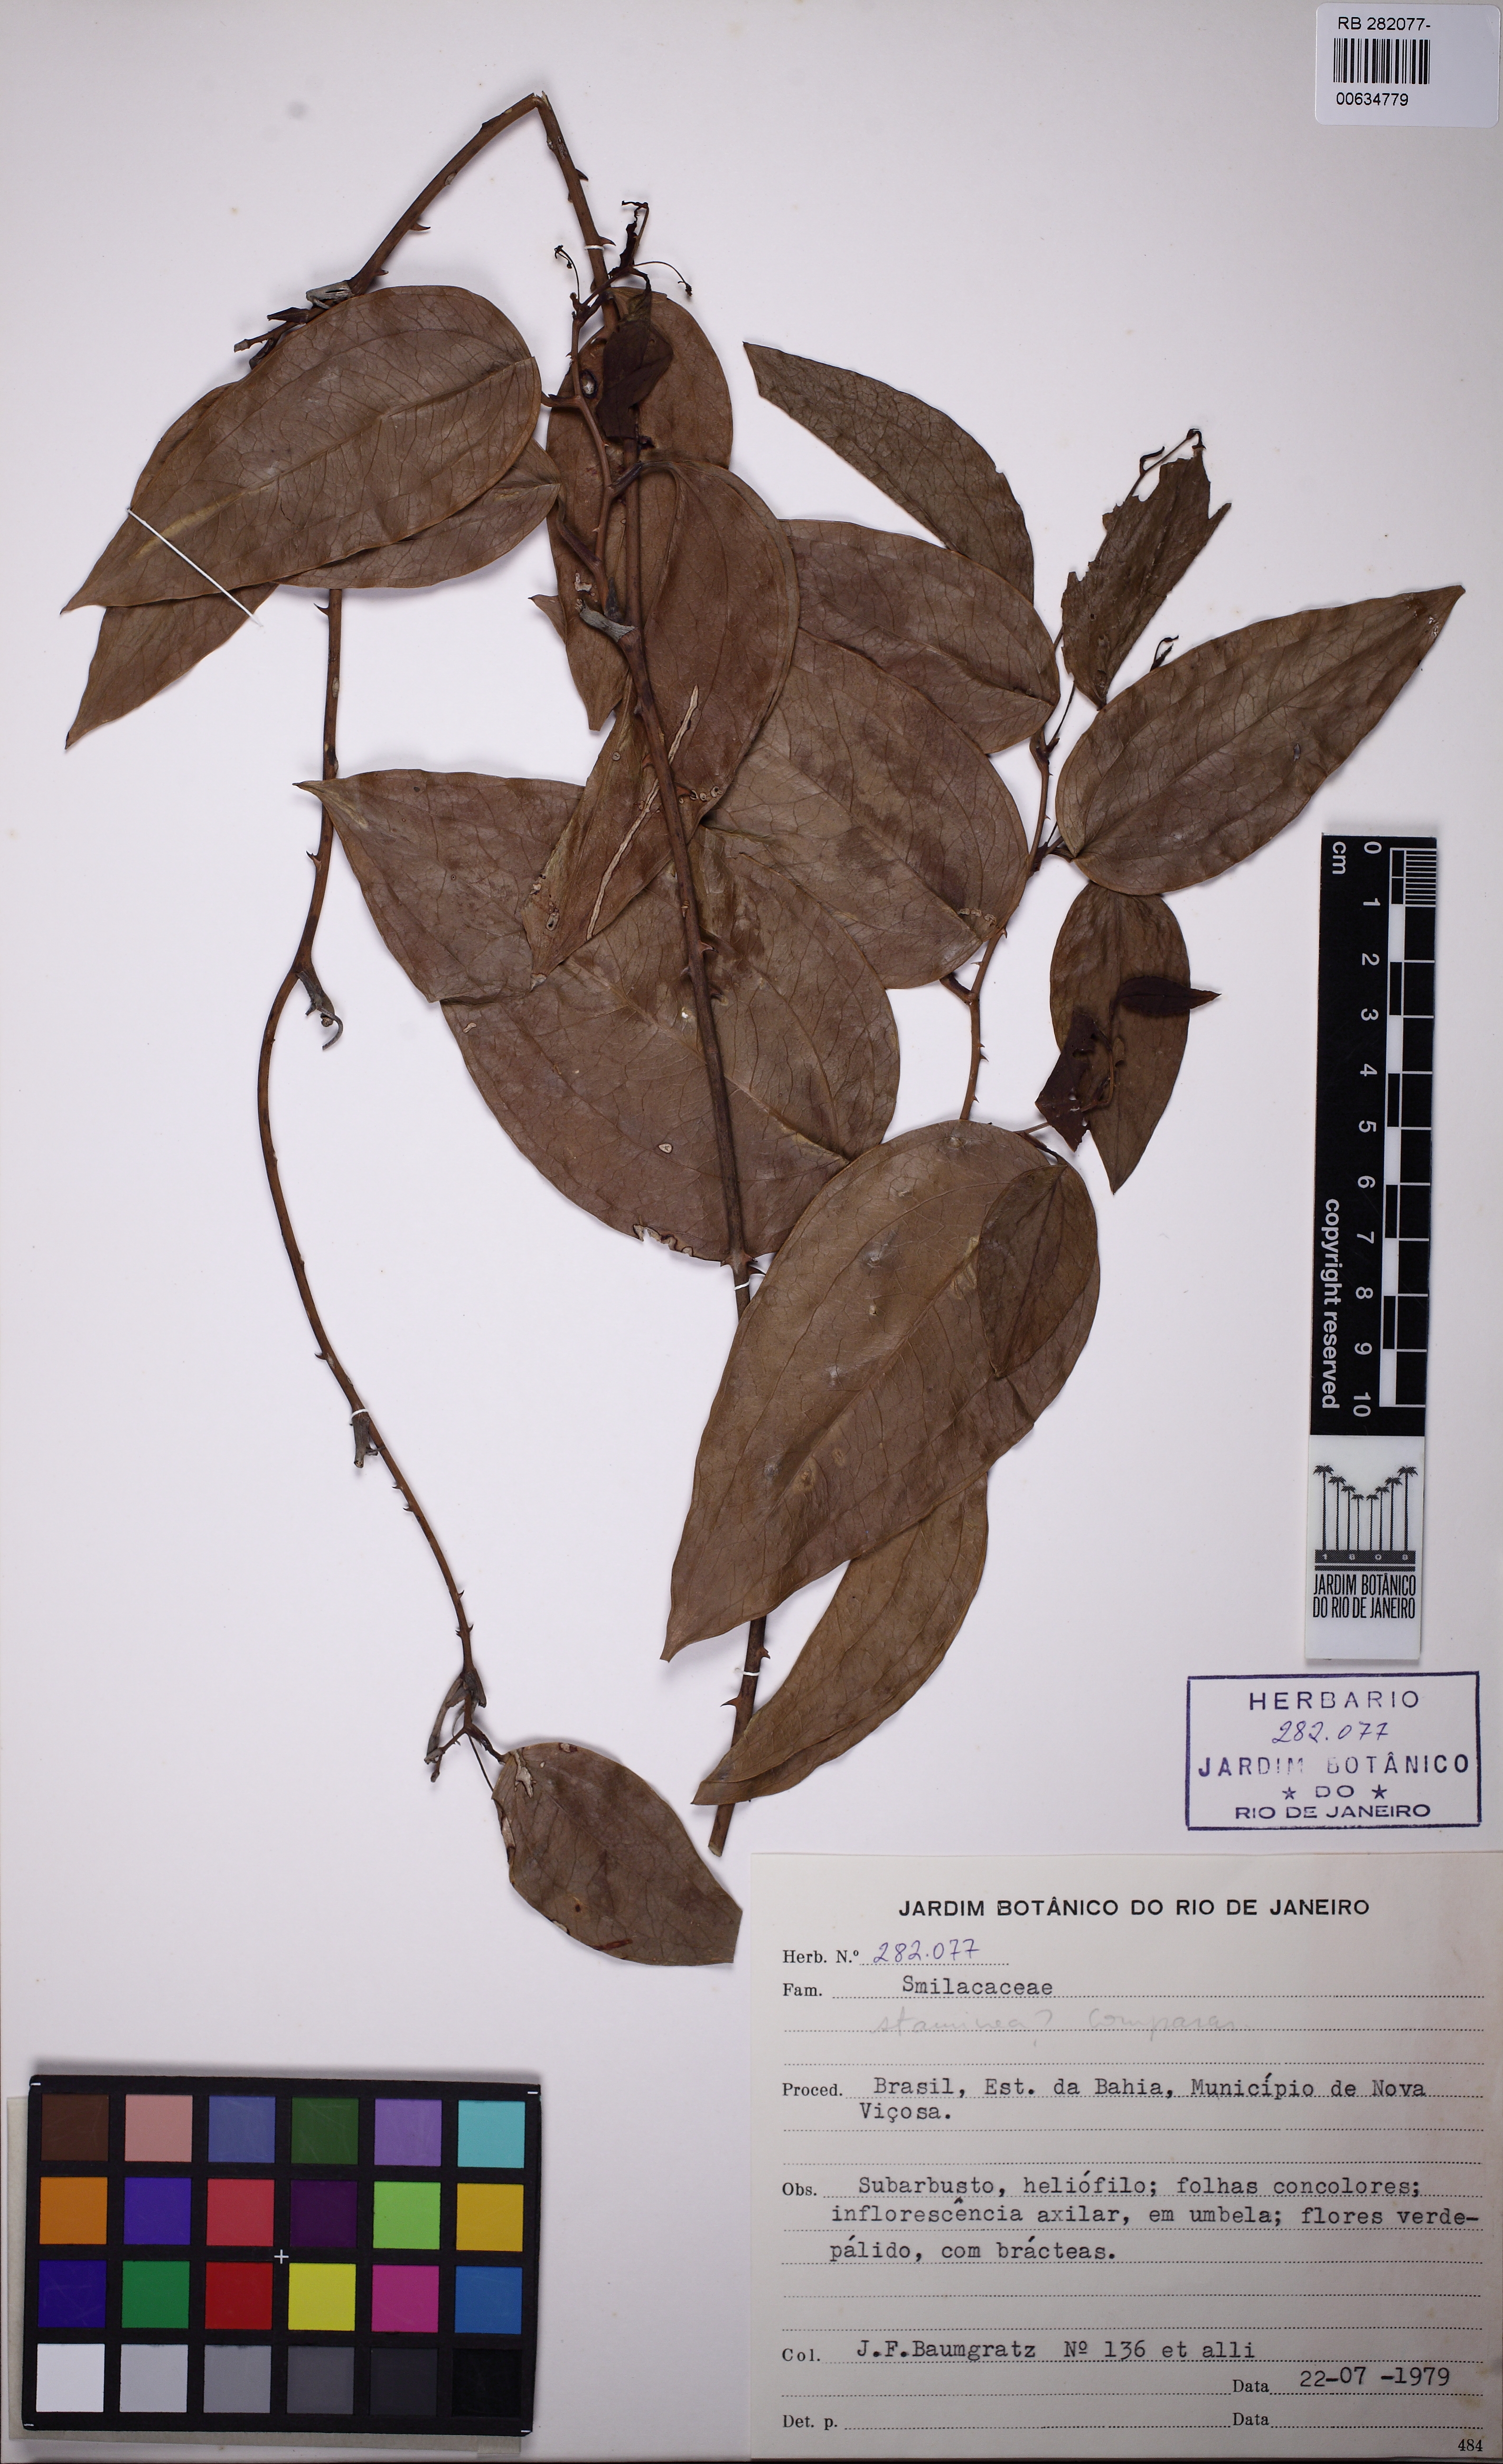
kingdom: Plantae
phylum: Tracheophyta
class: Liliopsida
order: Liliales
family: Smilacaceae
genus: Smilax
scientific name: Smilax
